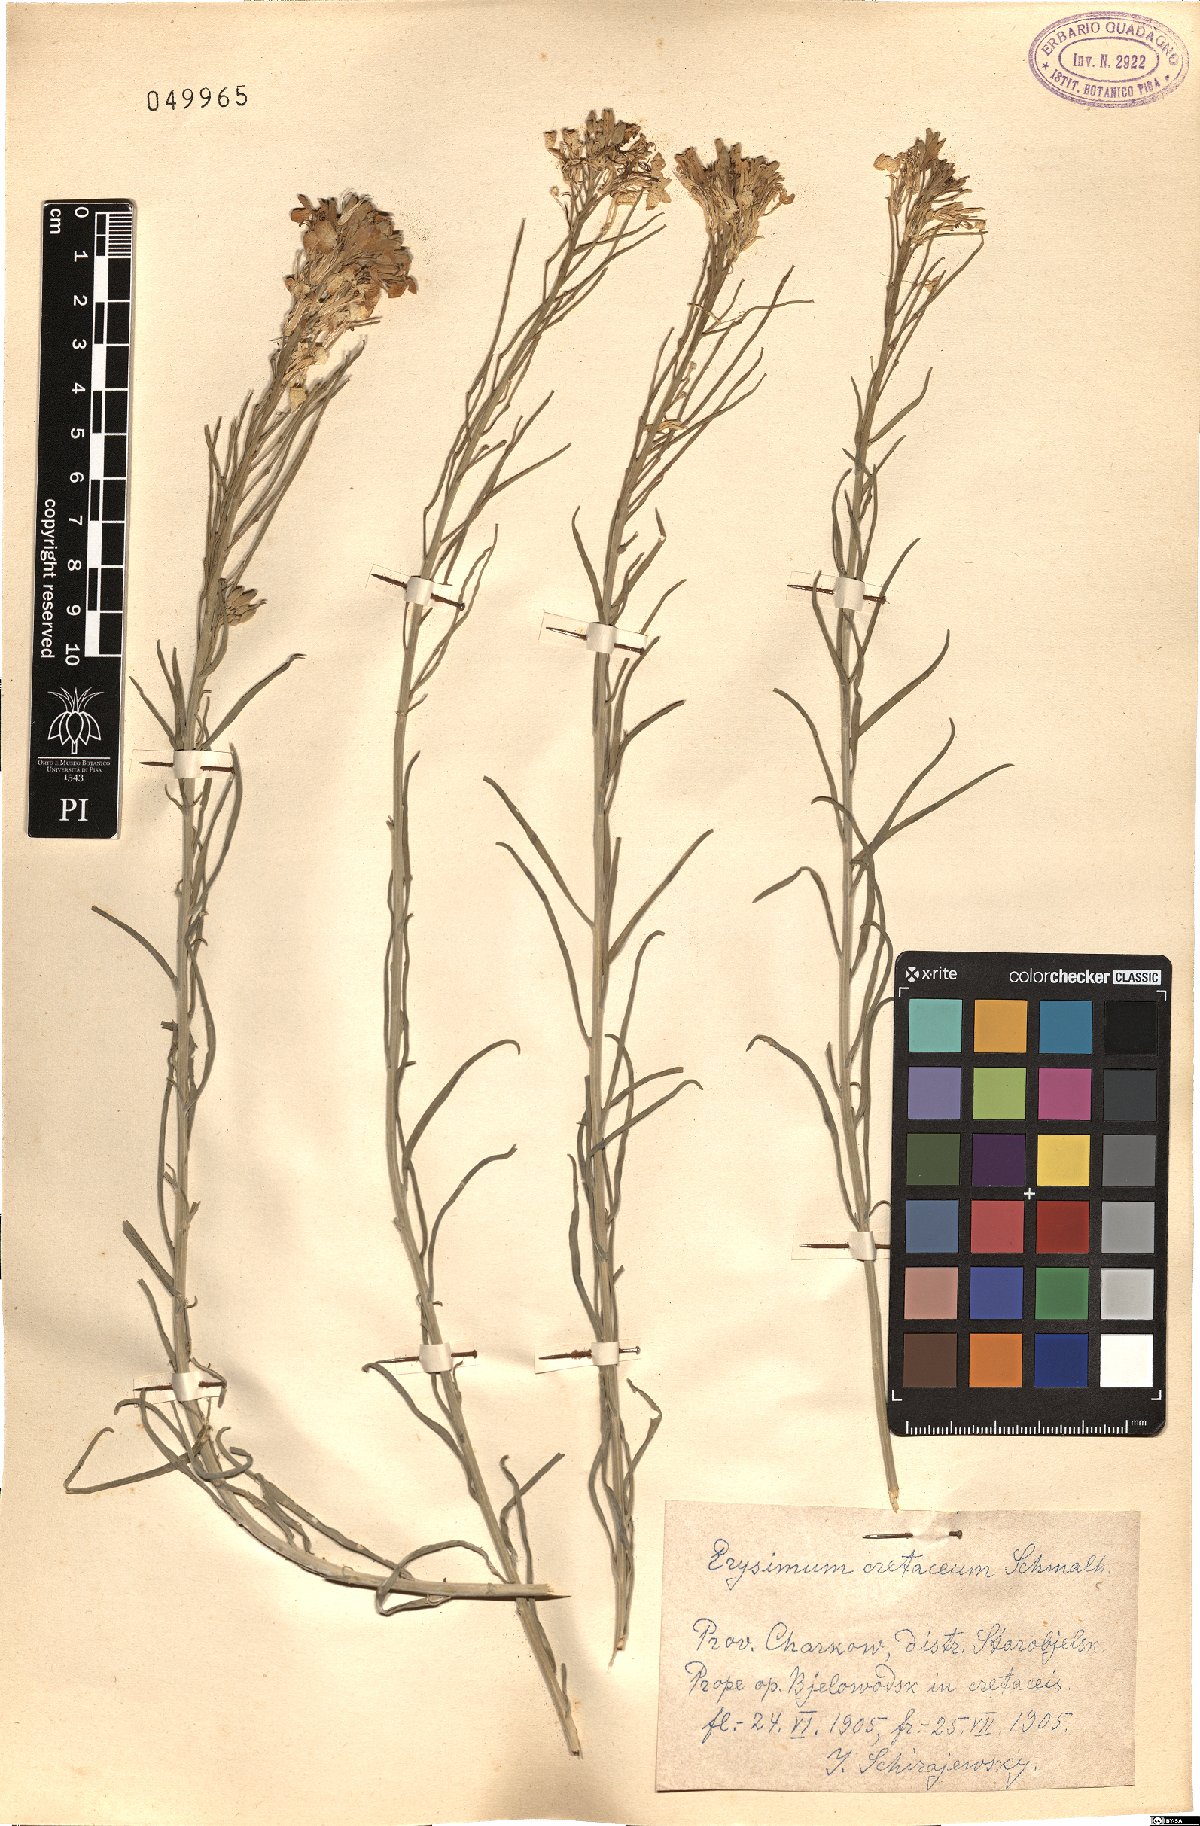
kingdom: Plantae
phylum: Tracheophyta
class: Magnoliopsida
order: Brassicales
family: Brassicaceae
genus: Erysimum
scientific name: Erysimum ucranicum
